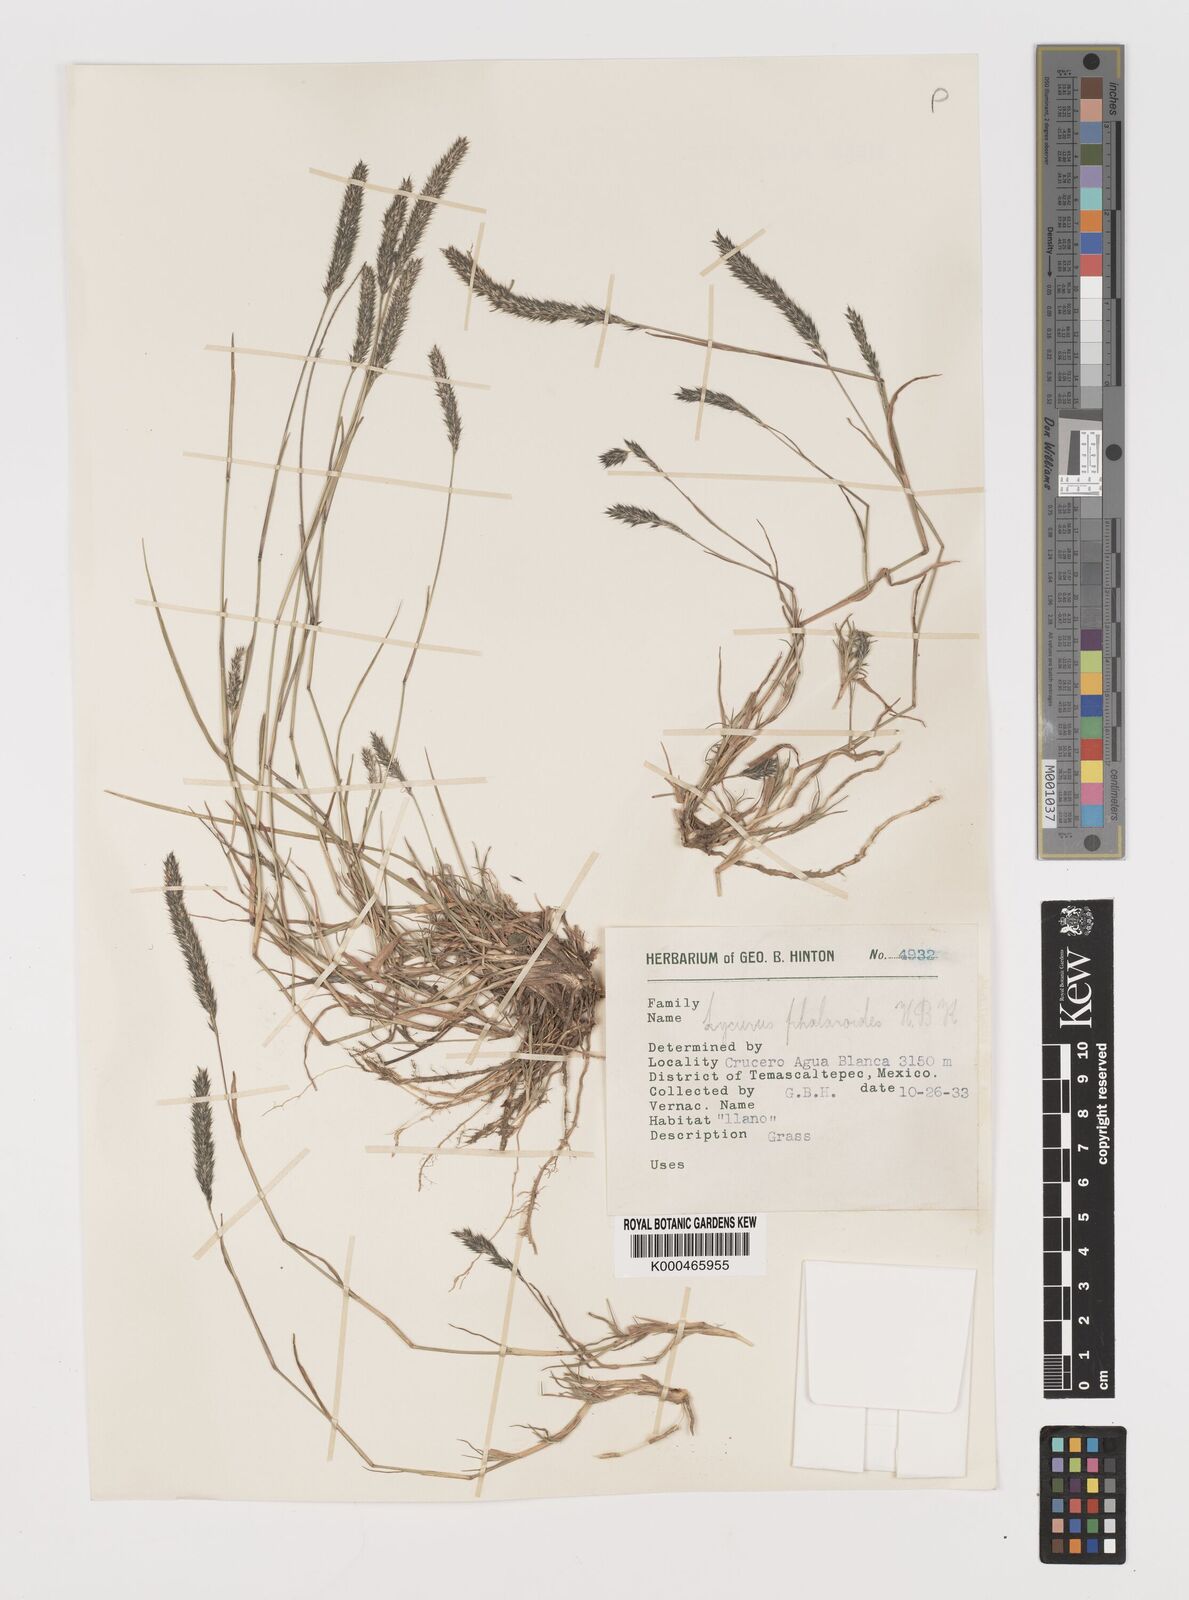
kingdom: Plantae
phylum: Tracheophyta
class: Liliopsida
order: Poales
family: Poaceae
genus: Muhlenbergia
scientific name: Muhlenbergia phalaroides
